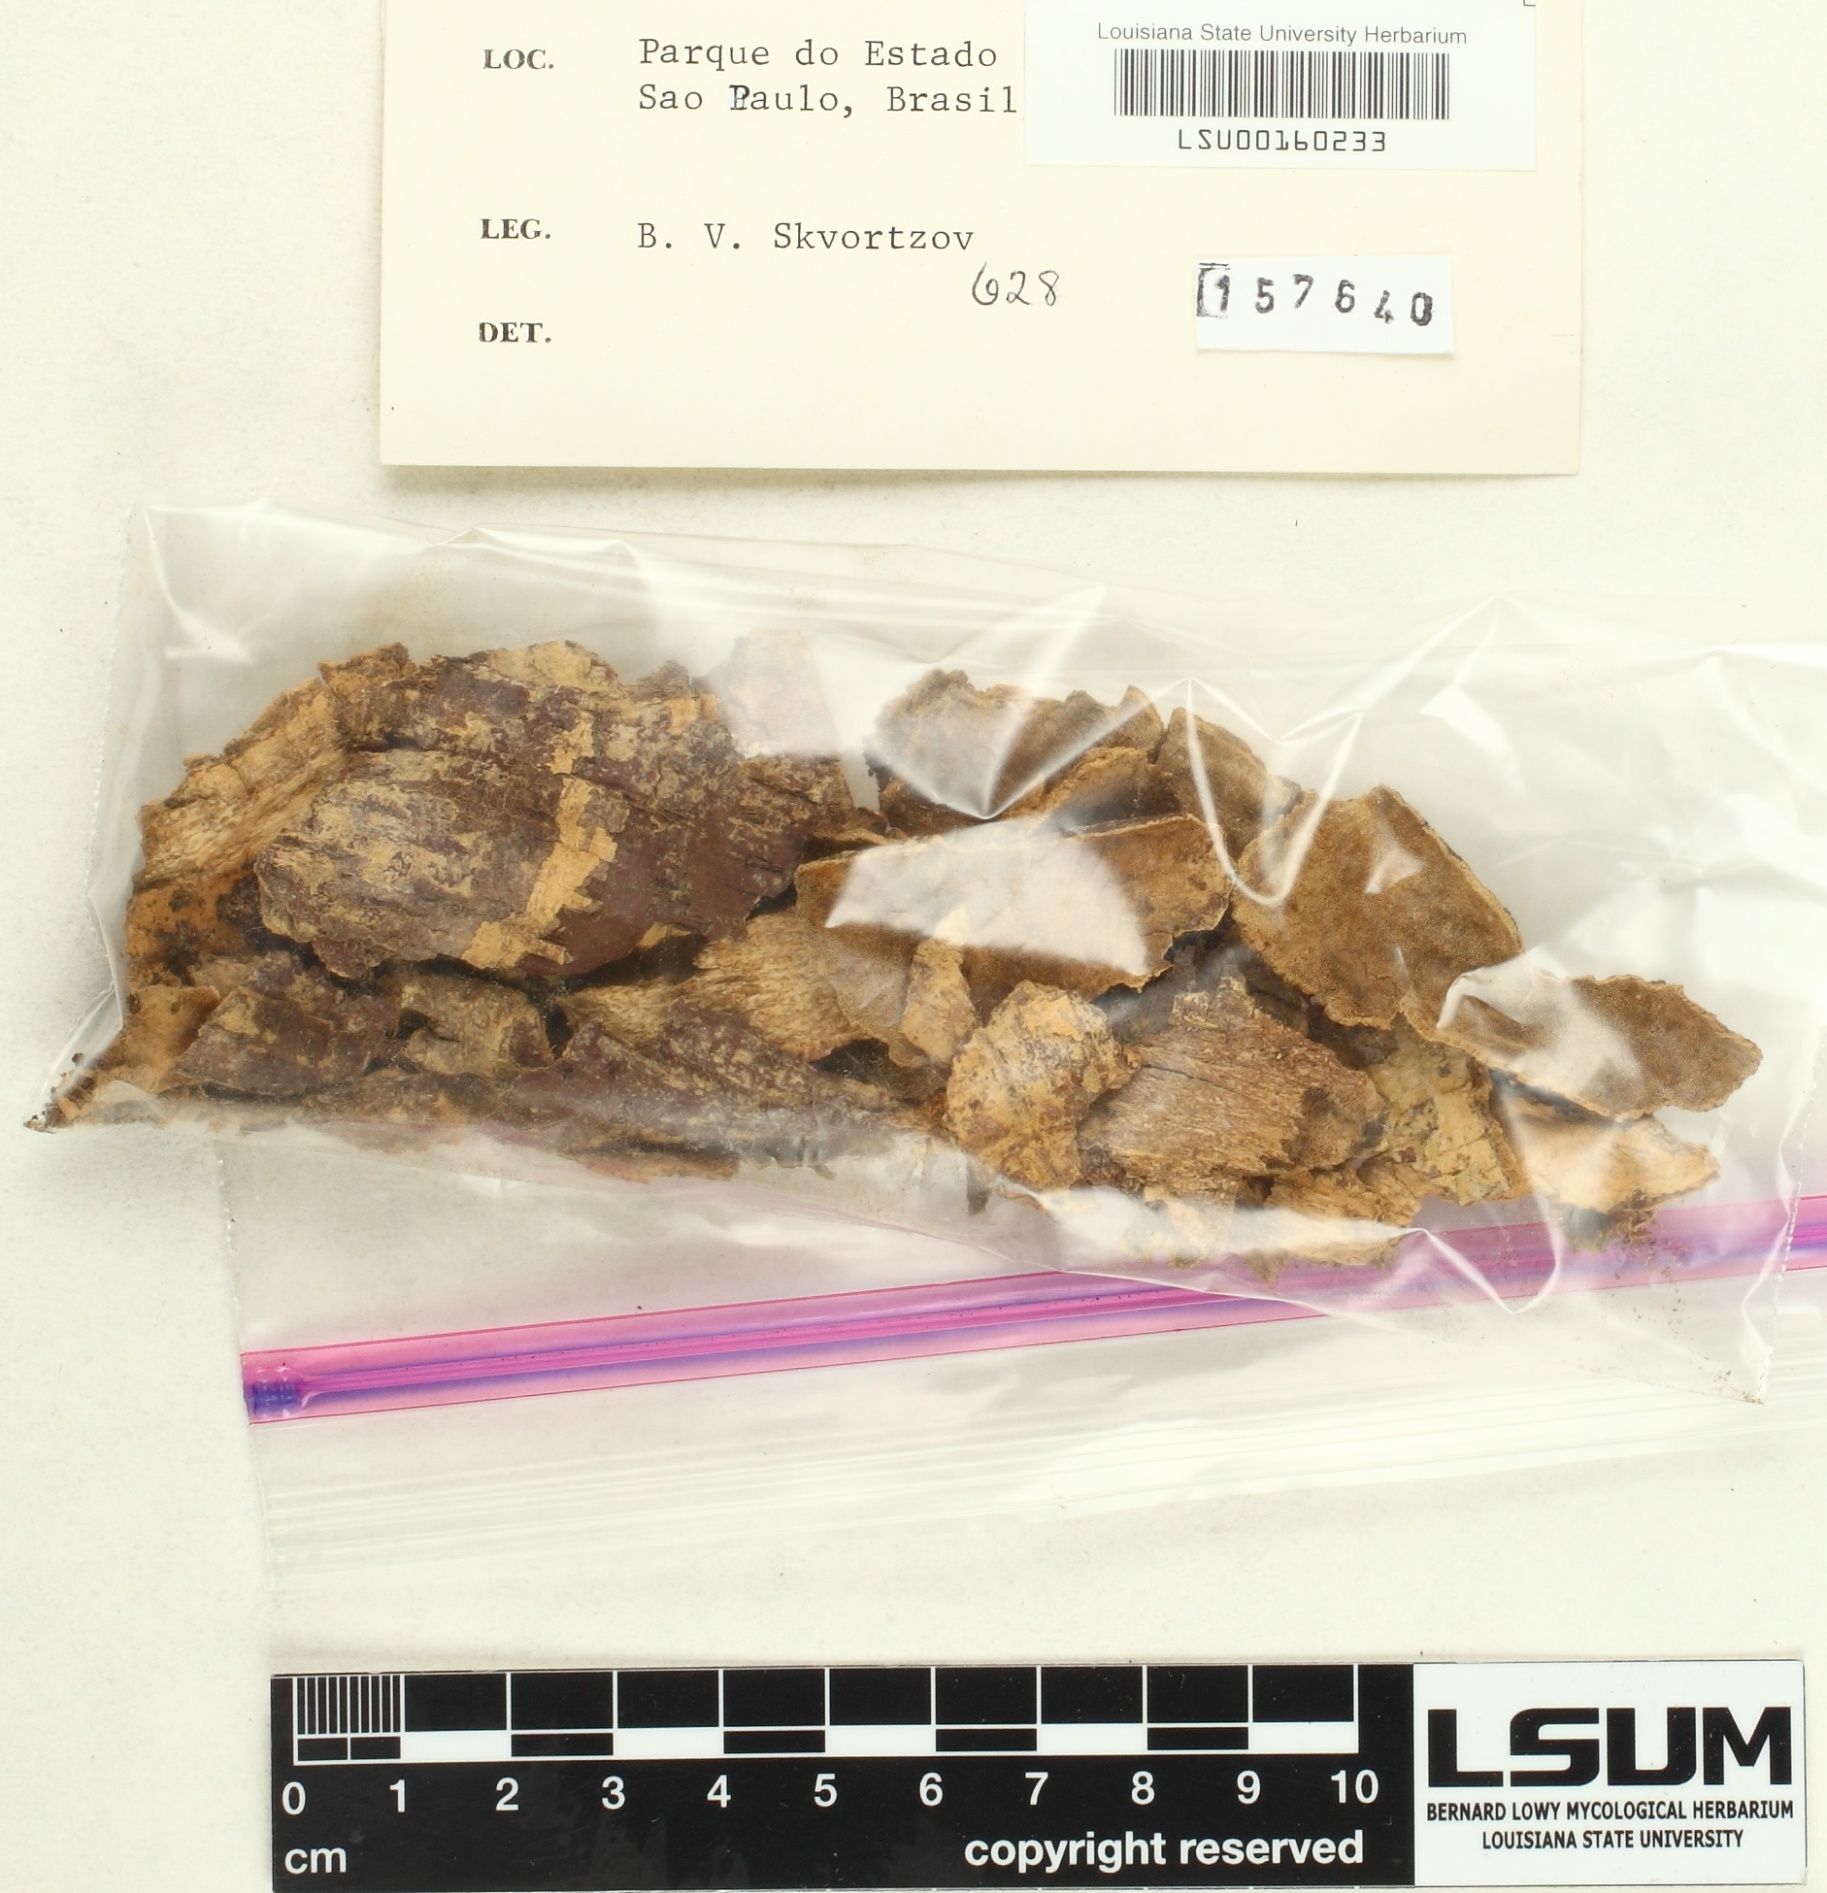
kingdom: Fungi
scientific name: Fungi
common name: Fungi
